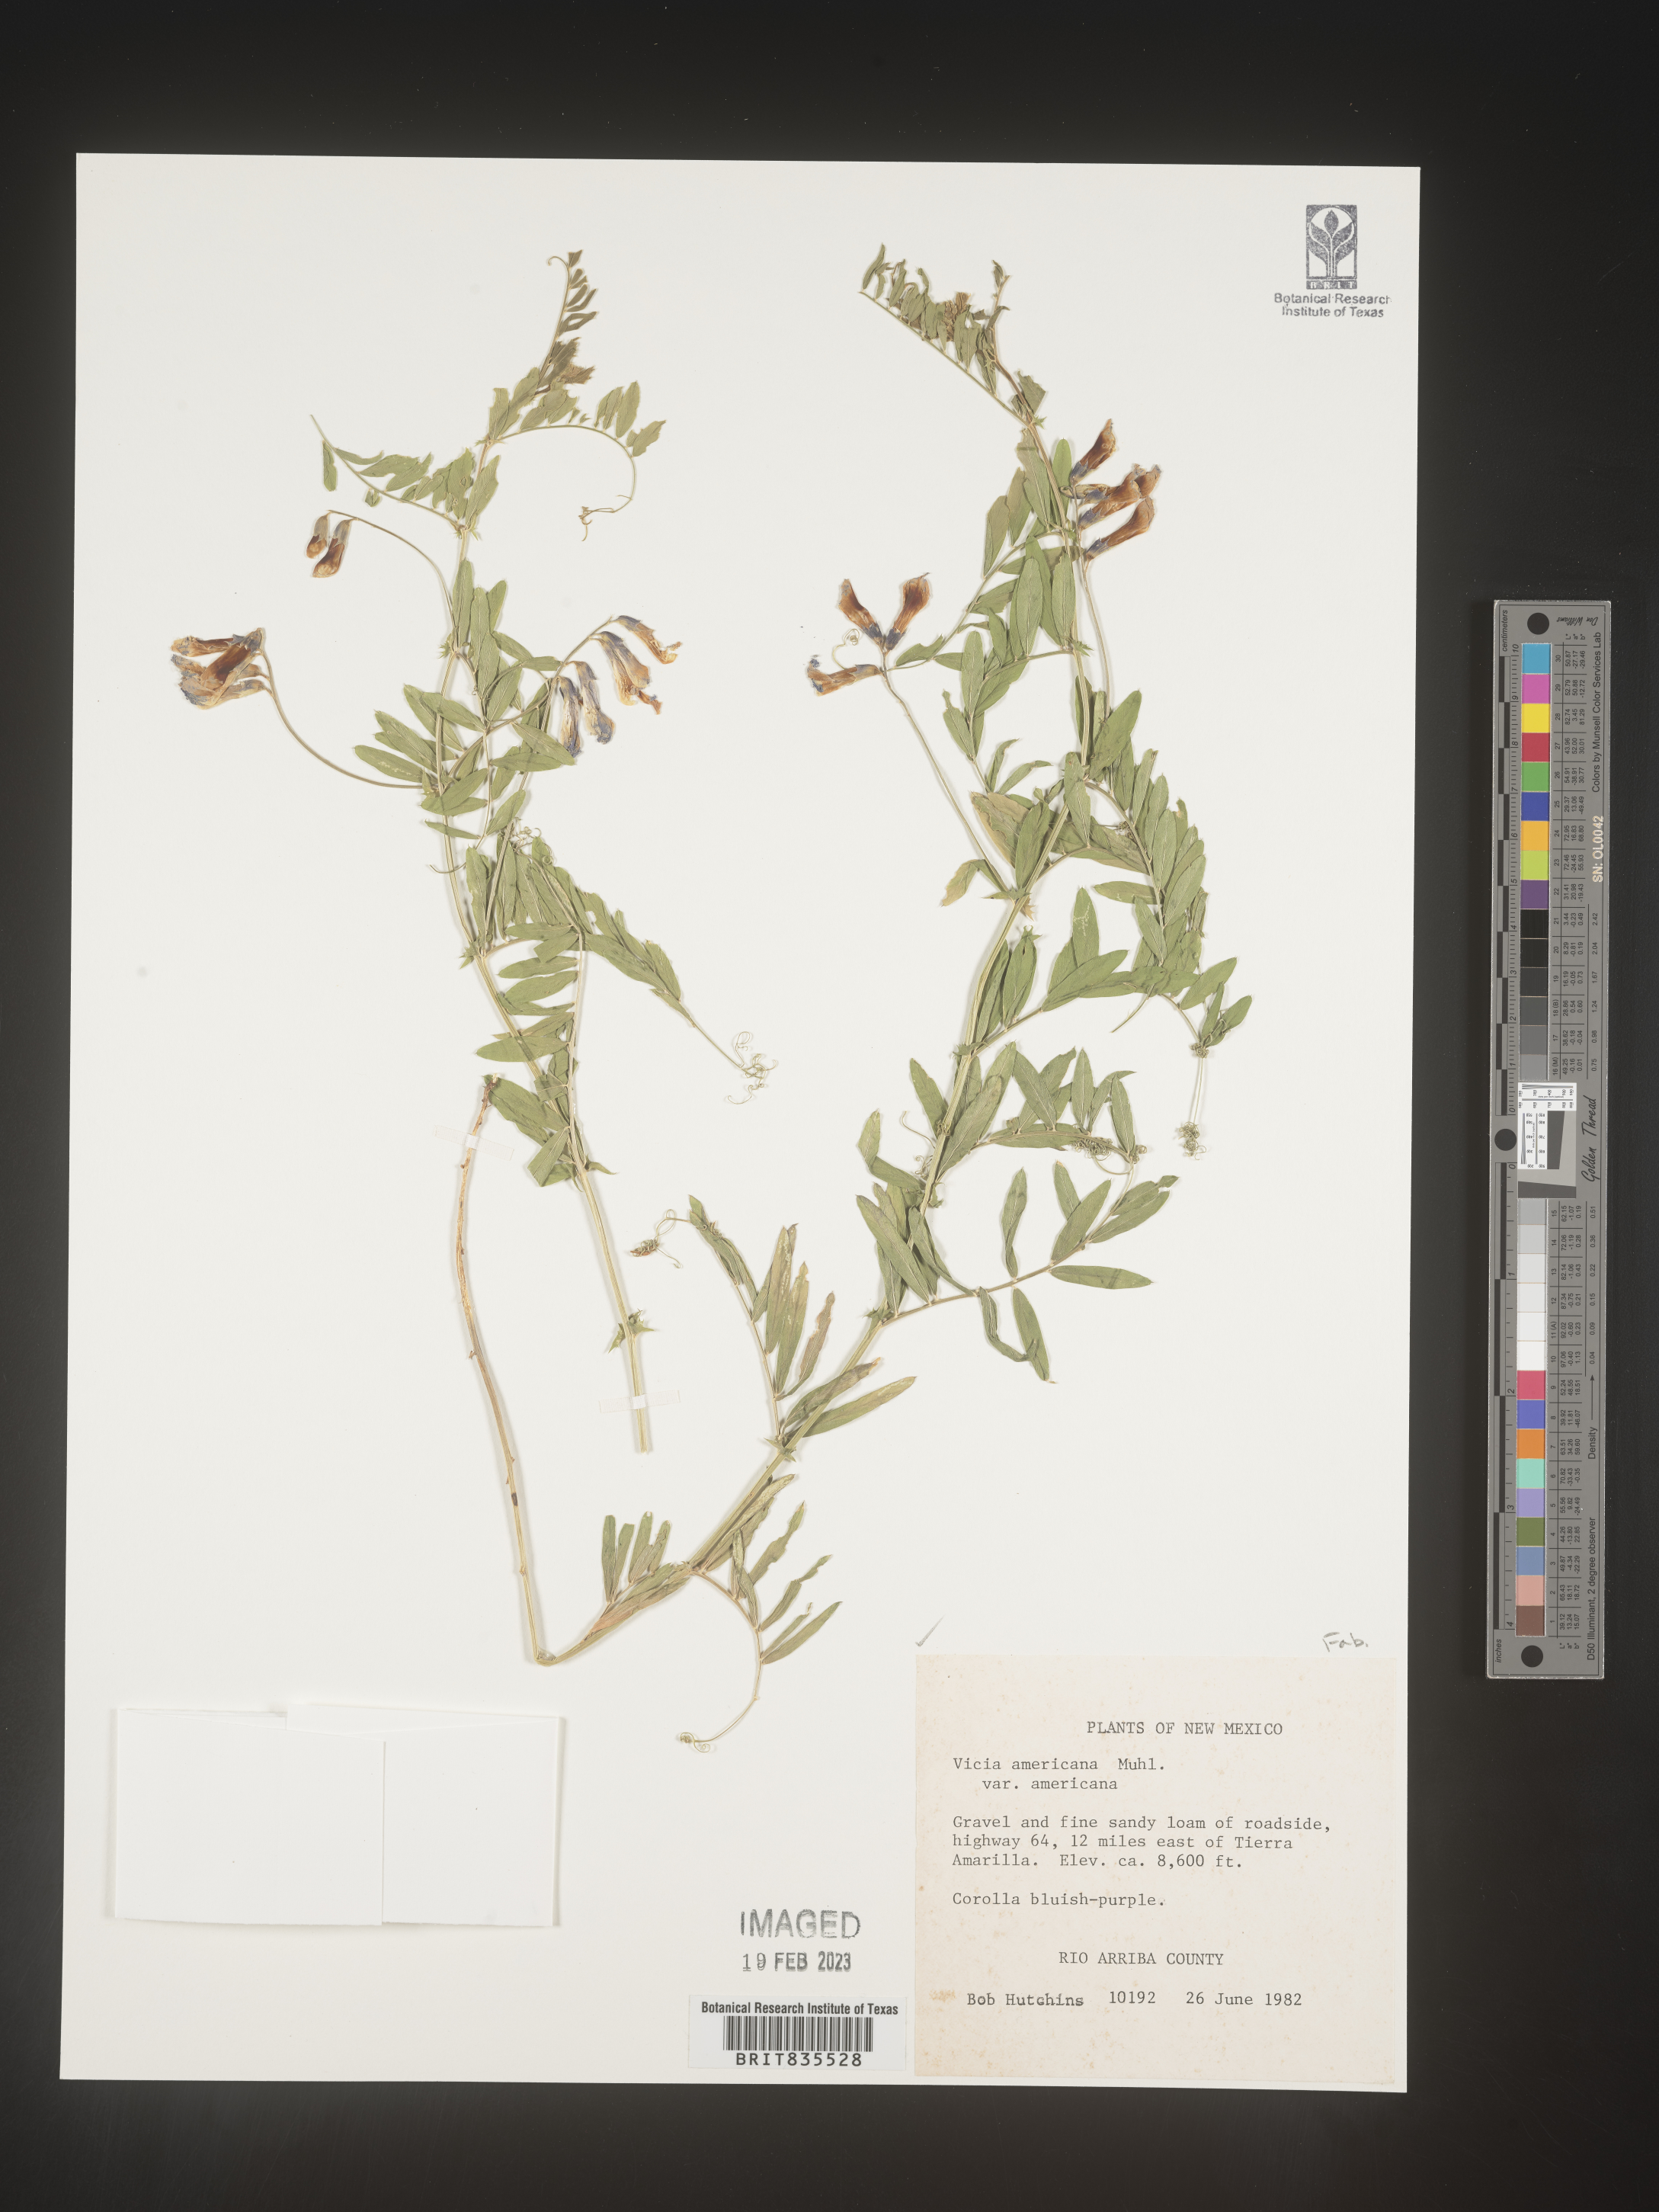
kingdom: Plantae
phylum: Tracheophyta
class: Magnoliopsida
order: Fabales
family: Fabaceae
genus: Vicia
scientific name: Vicia americana
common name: American vetch
